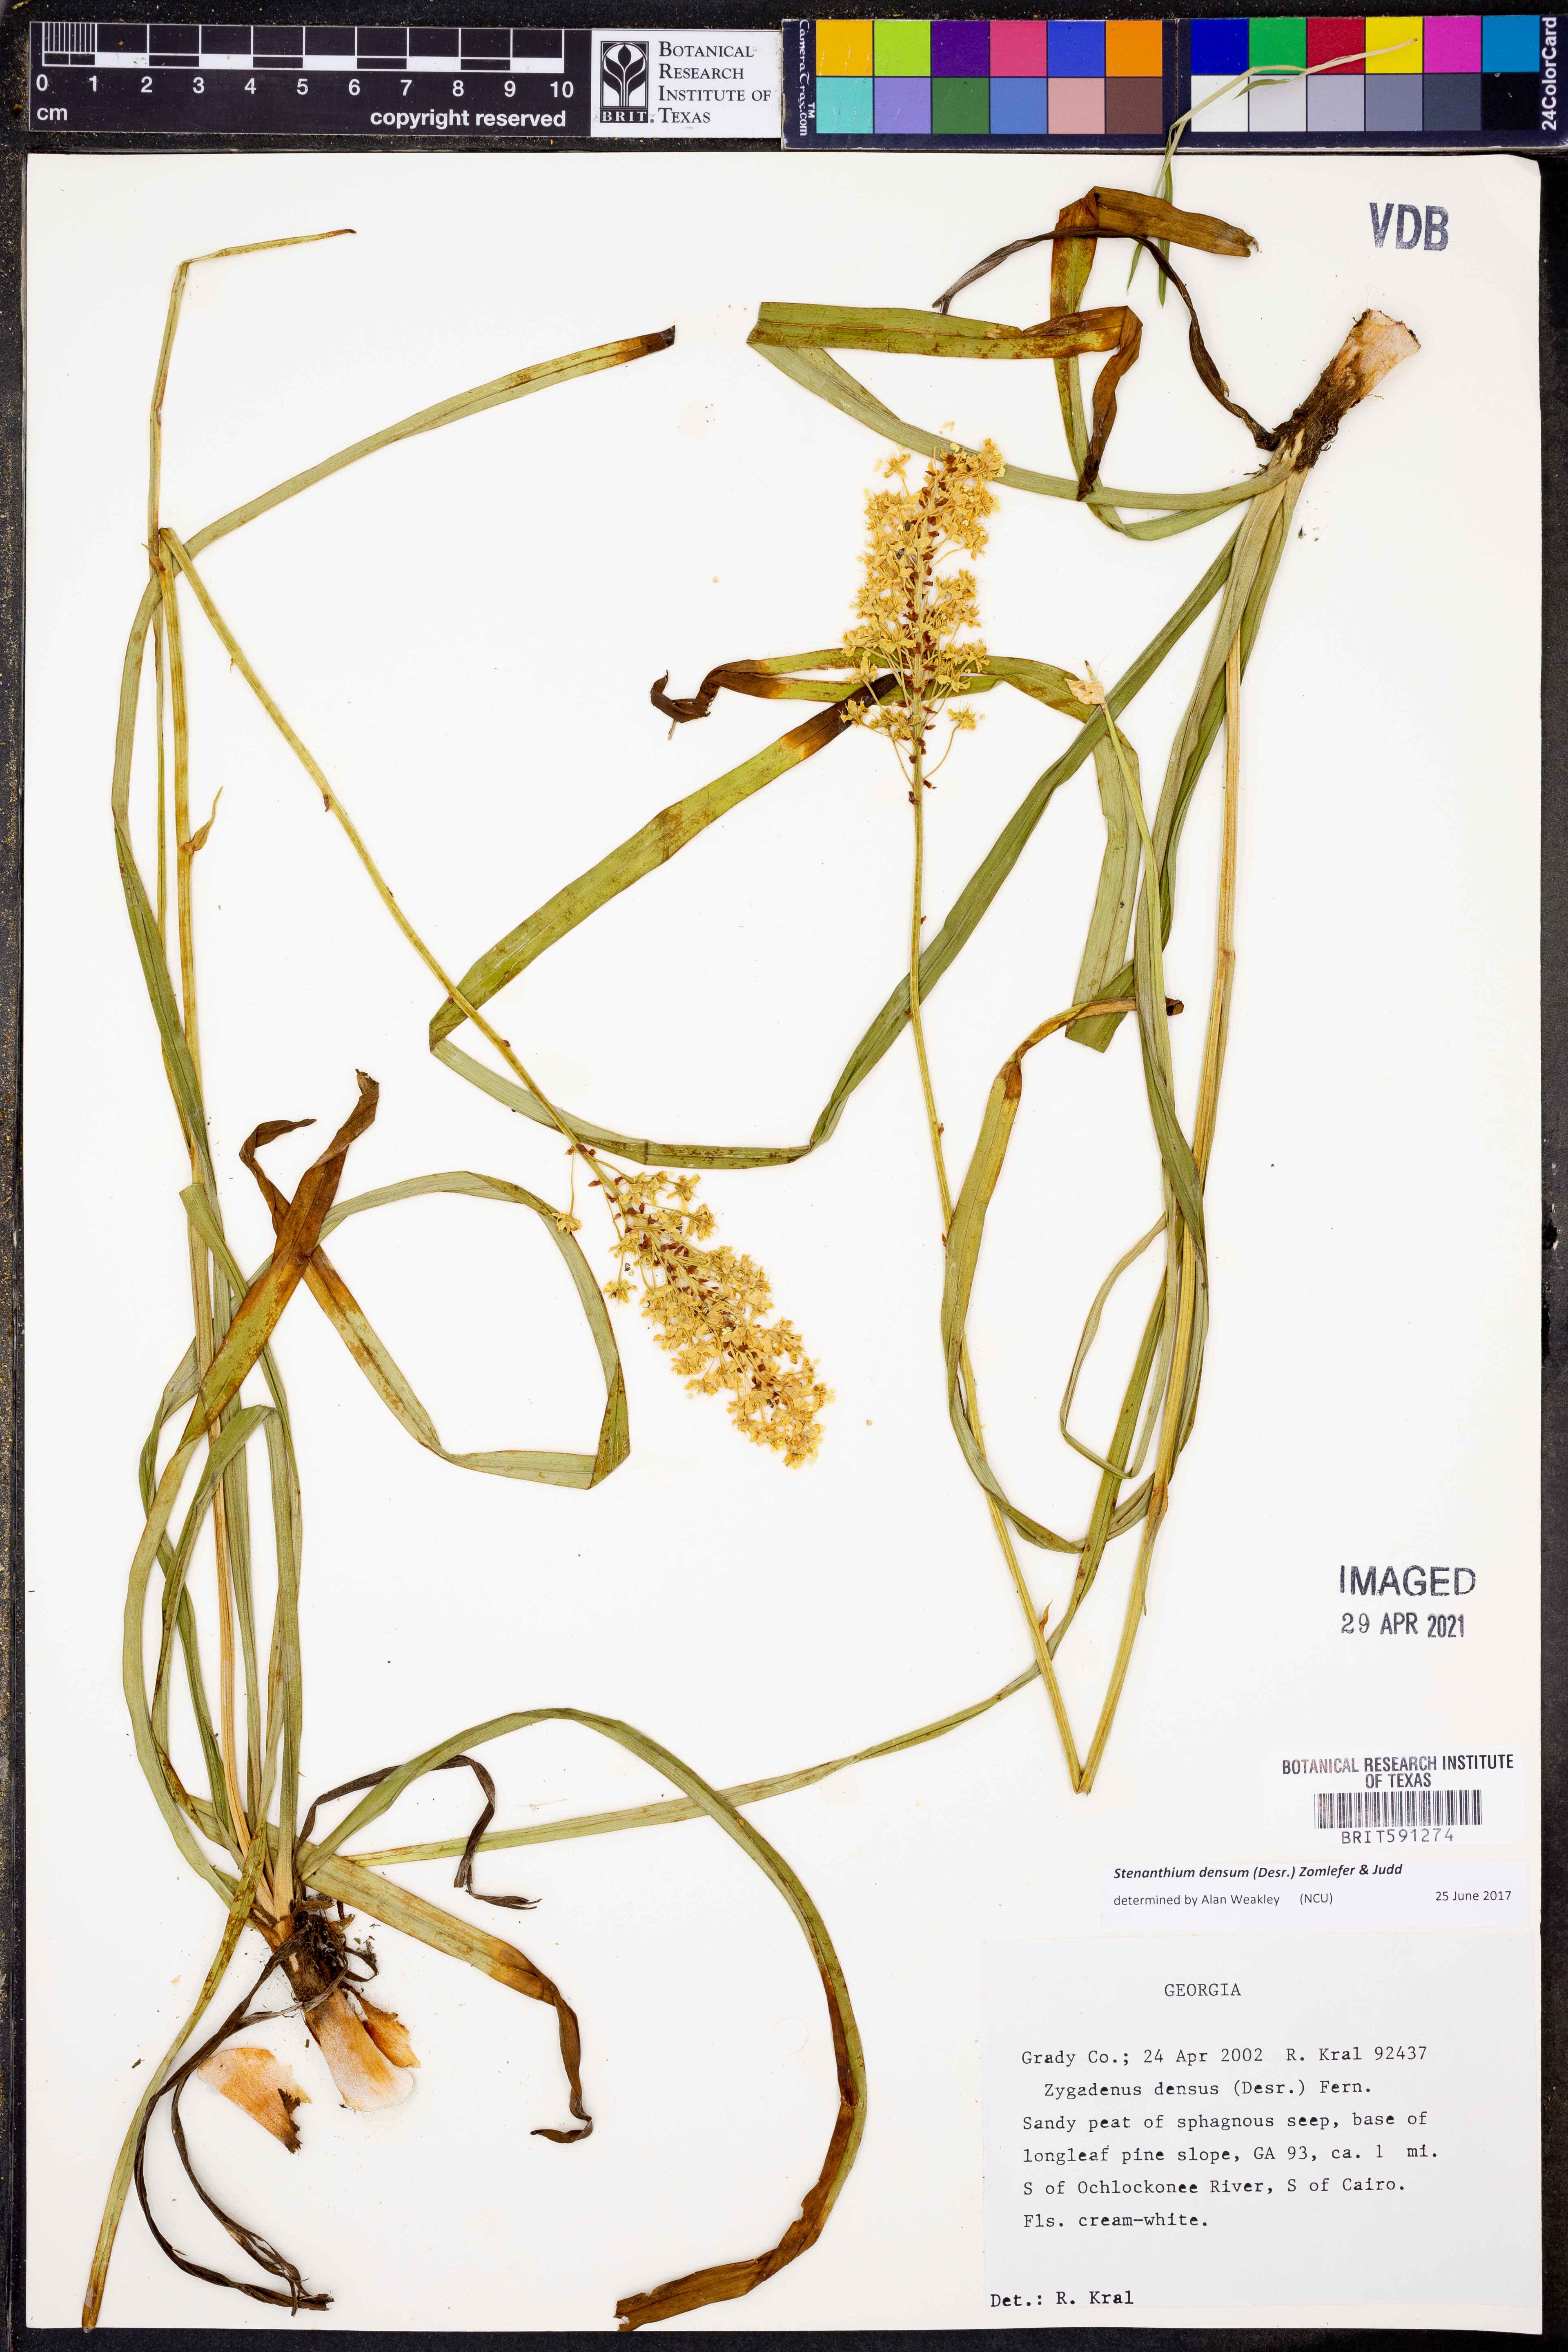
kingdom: Plantae
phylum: Tracheophyta
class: Liliopsida
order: Liliales
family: Melanthiaceae
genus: Stenanthium
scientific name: Stenanthium densum
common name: Crow-poison
